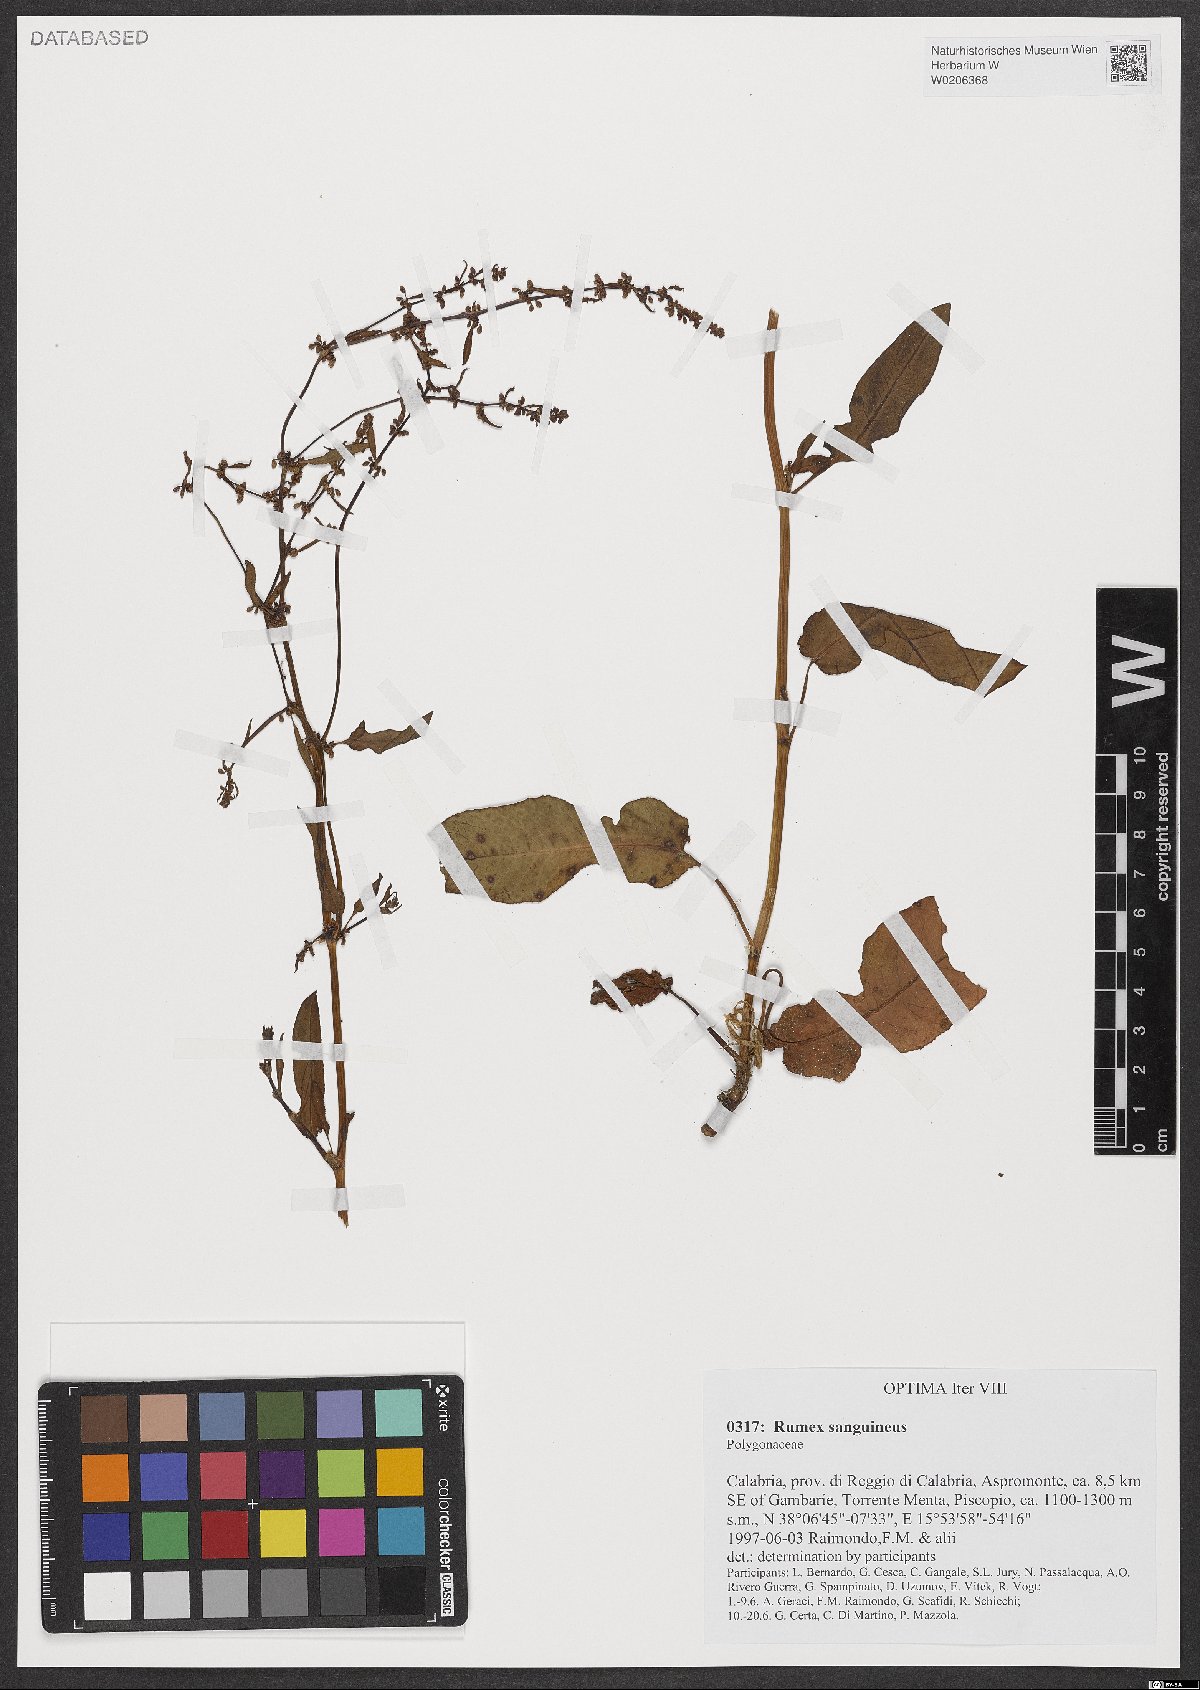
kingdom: Plantae
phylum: Tracheophyta
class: Magnoliopsida
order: Caryophyllales
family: Polygonaceae
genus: Rumex
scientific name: Rumex sanguineus
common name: Wood dock
